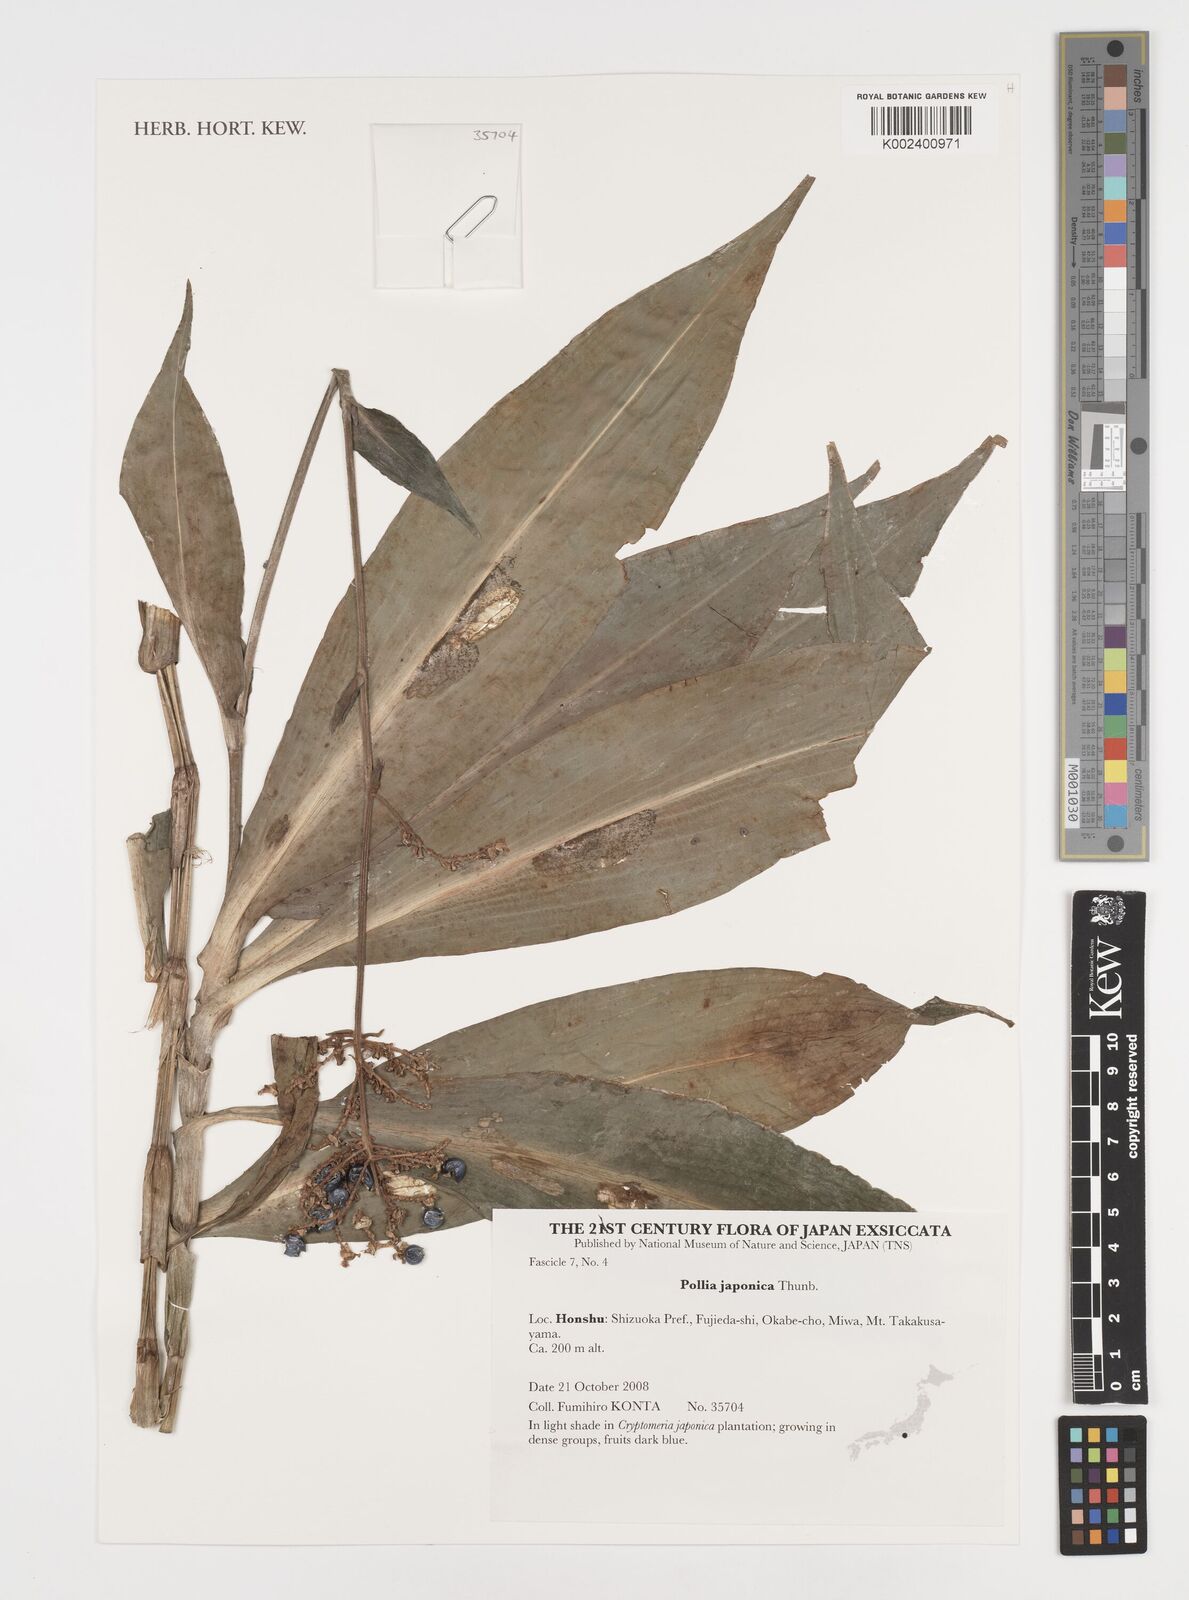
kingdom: Plantae
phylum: Tracheophyta
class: Liliopsida
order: Commelinales
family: Commelinaceae
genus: Pollia
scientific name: Pollia japonica
